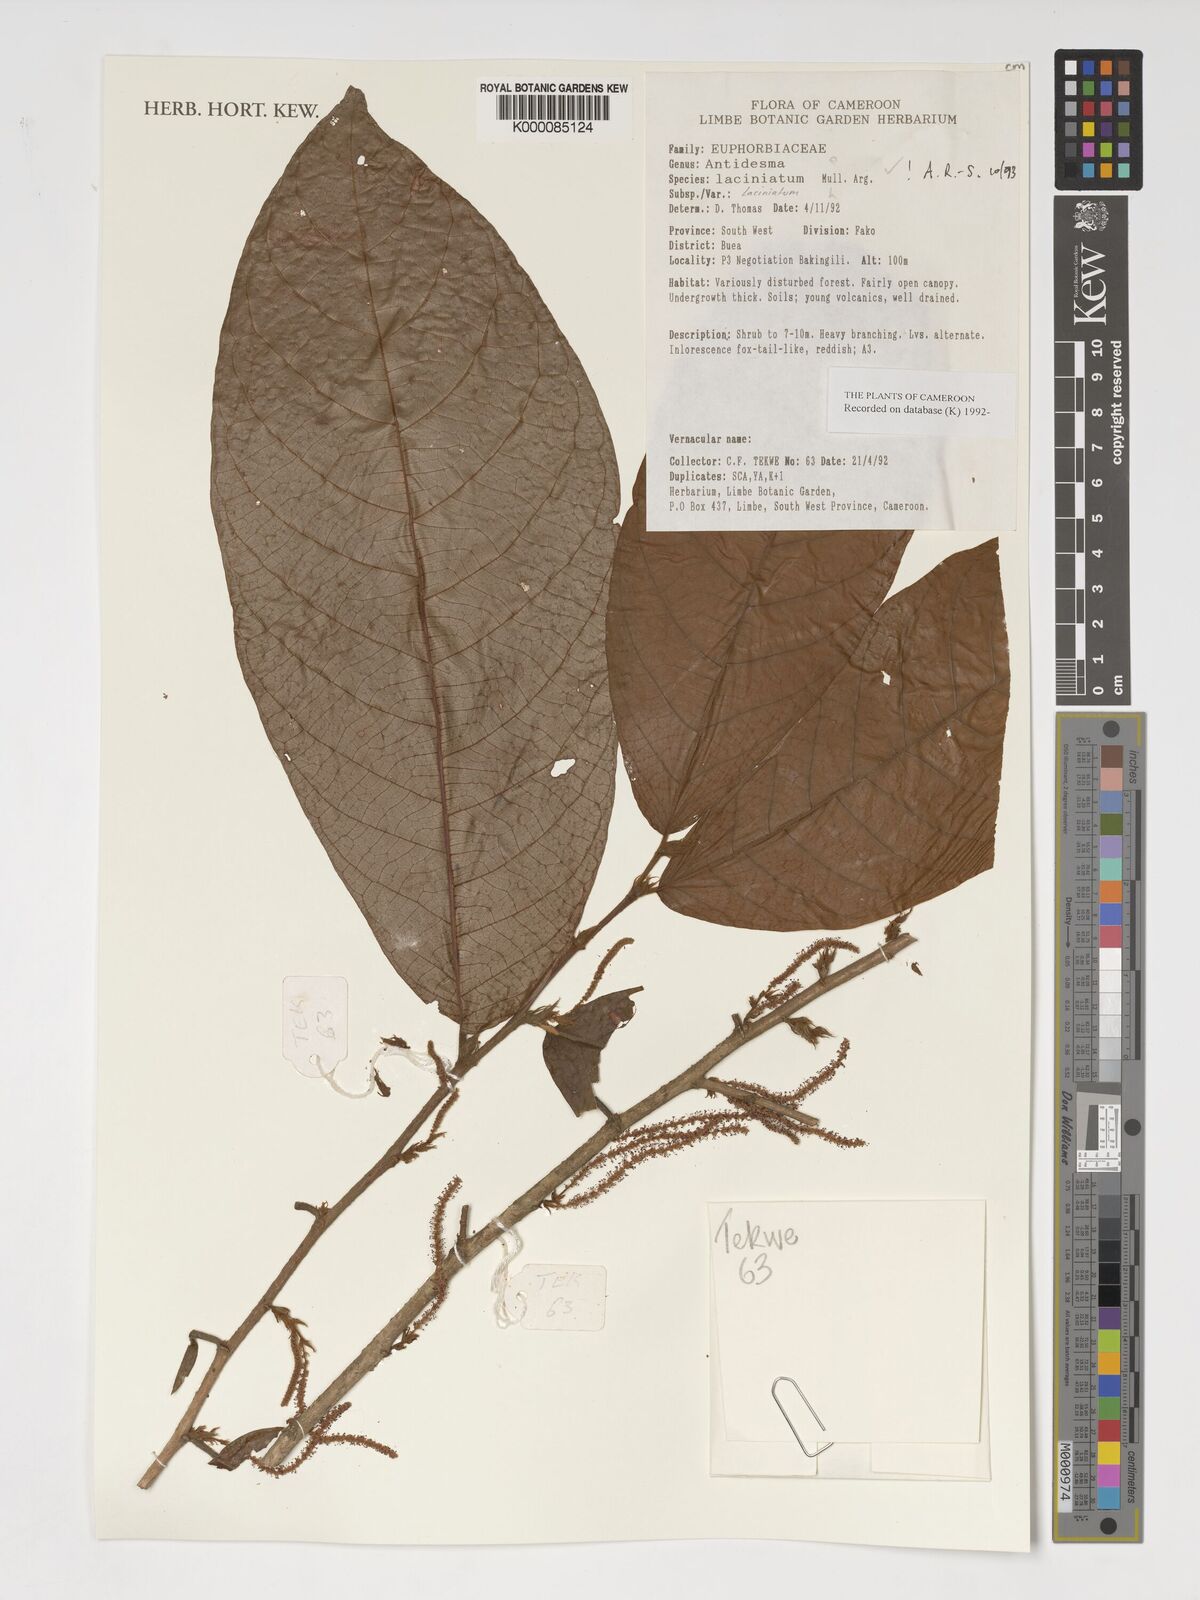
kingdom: Plantae
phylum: Tracheophyta
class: Magnoliopsida
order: Malpighiales
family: Phyllanthaceae
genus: Antidesma
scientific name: Antidesma
